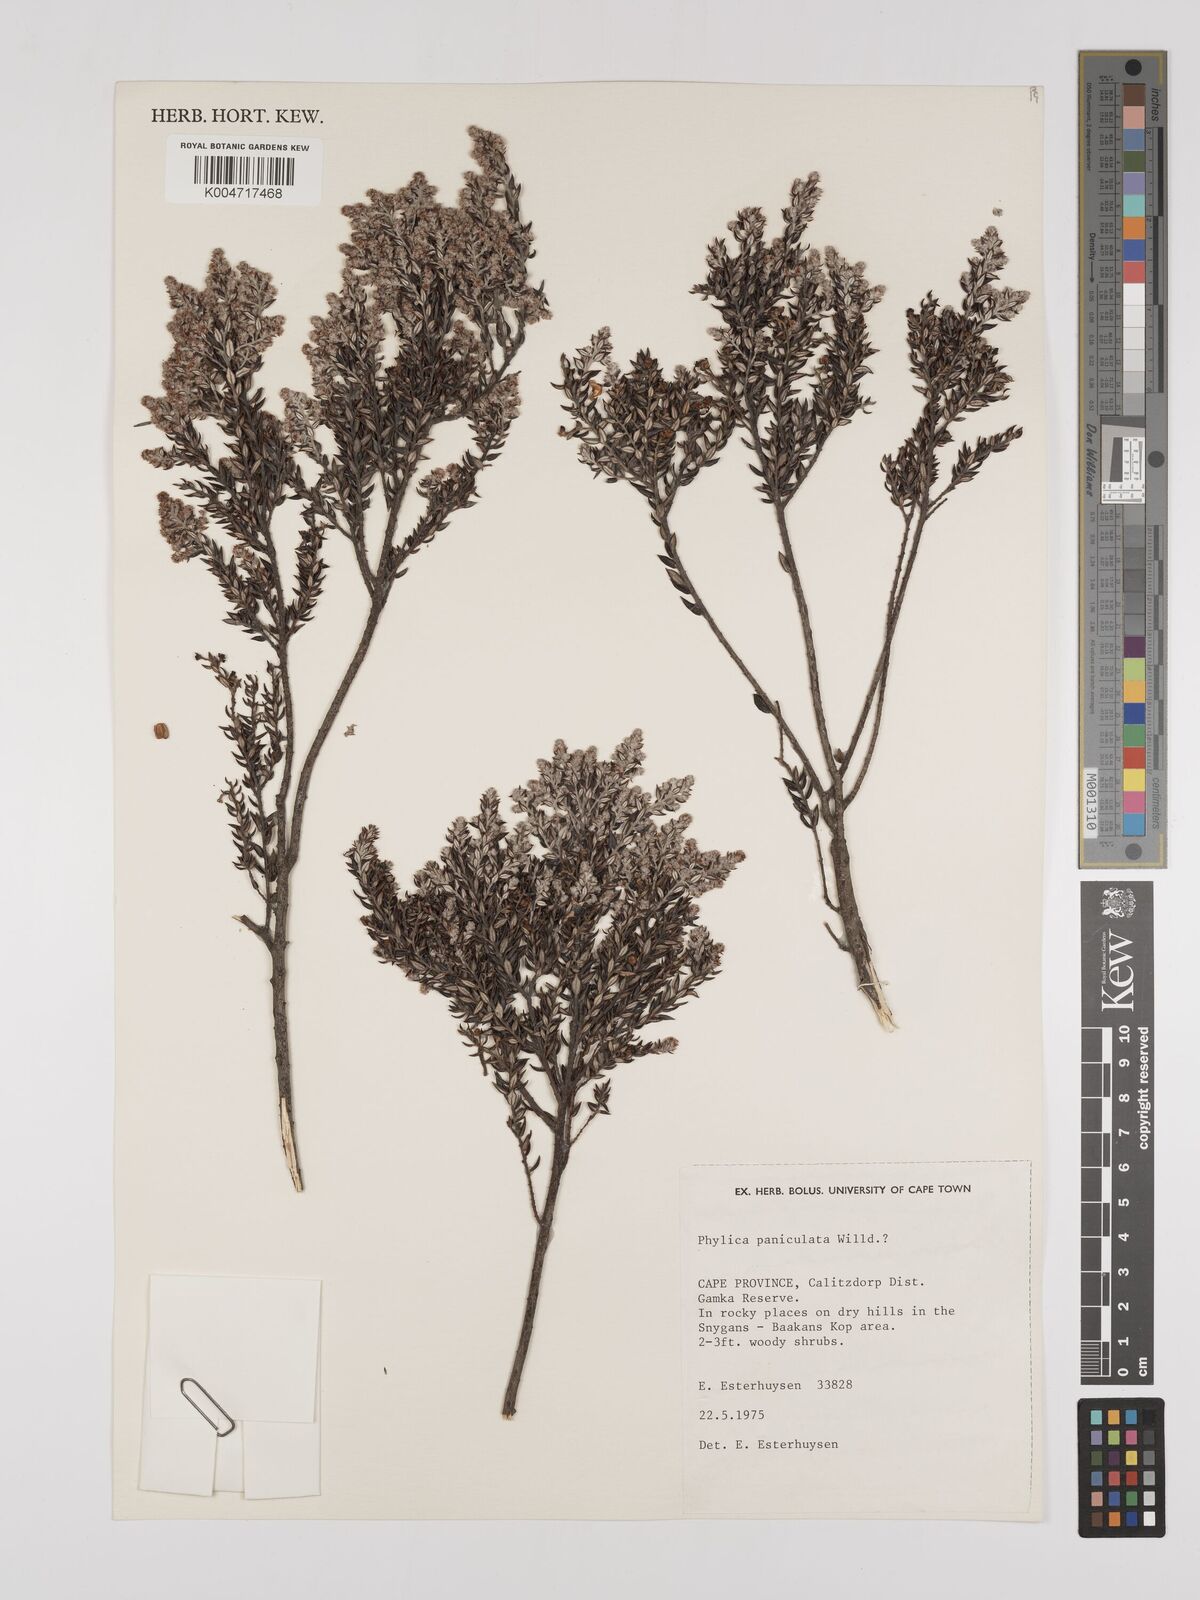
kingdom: Plantae
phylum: Tracheophyta
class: Magnoliopsida
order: Rosales
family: Rhamnaceae
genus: Phylica
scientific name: Phylica paniculata
